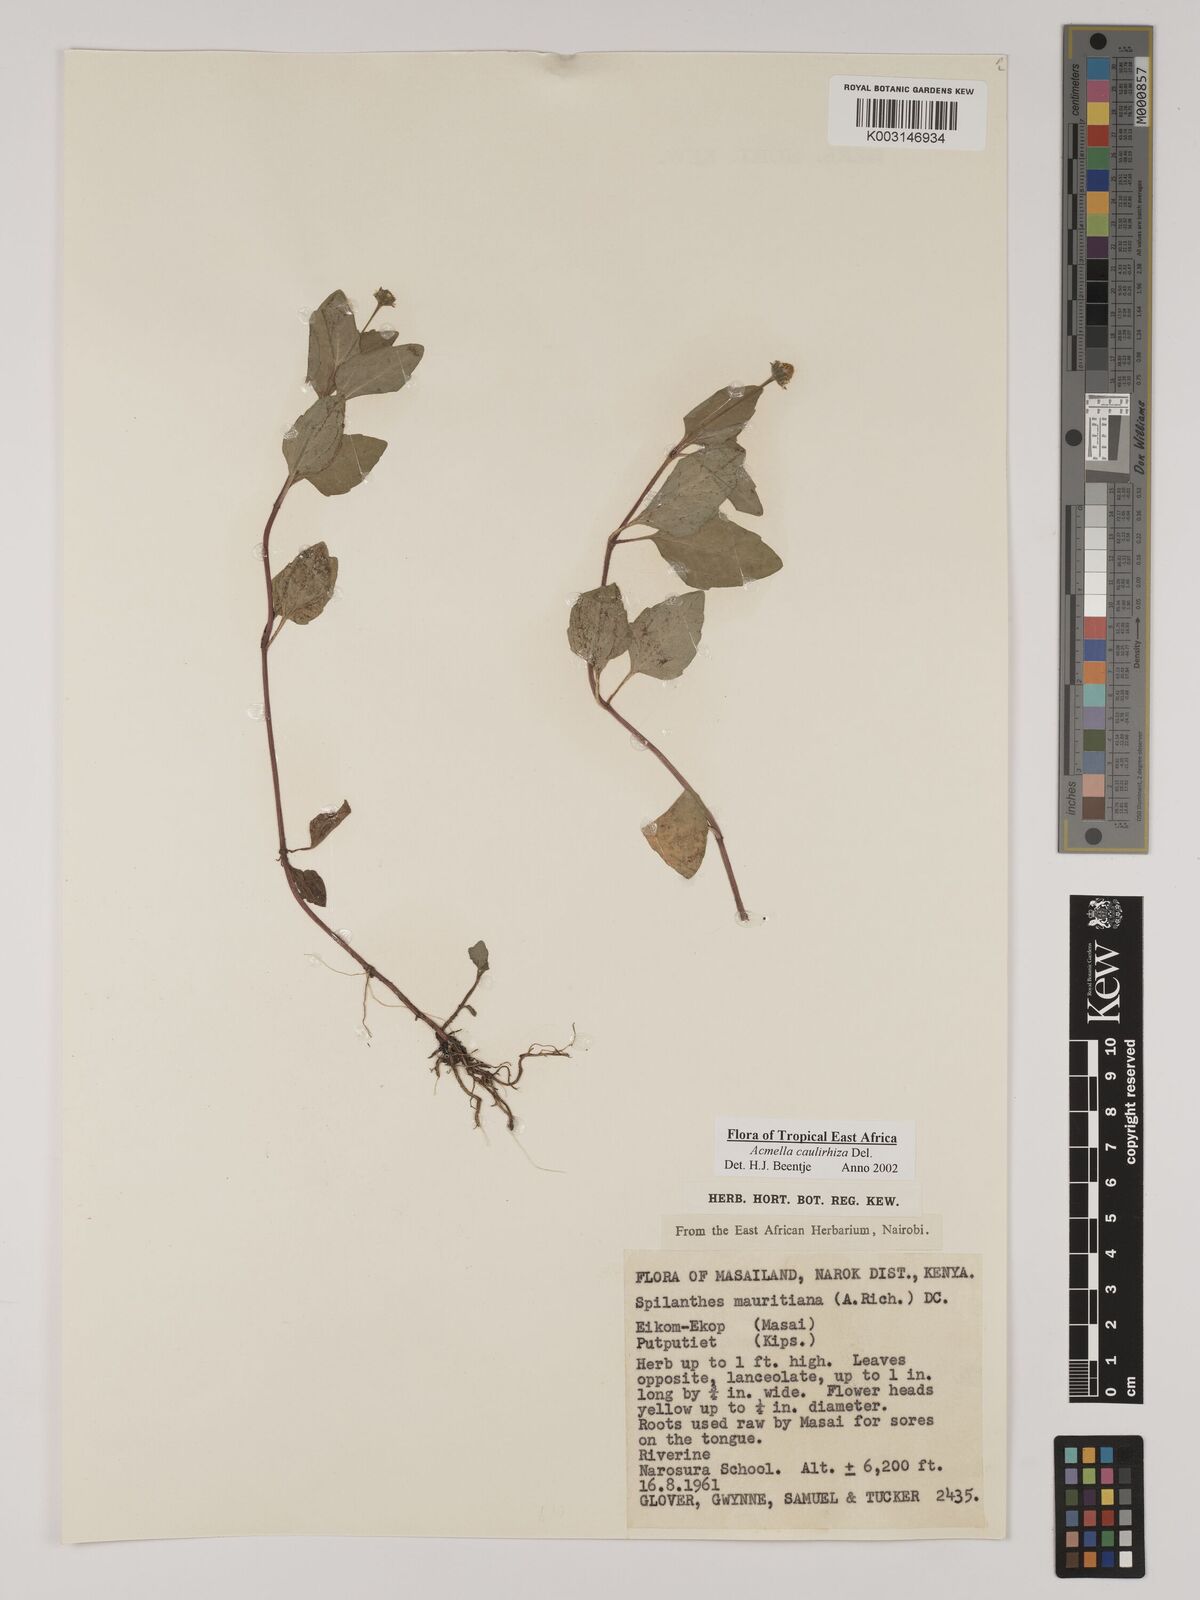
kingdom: Plantae
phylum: Tracheophyta
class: Magnoliopsida
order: Asterales
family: Asteraceae
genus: Acmella
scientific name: Acmella caulirhiza
